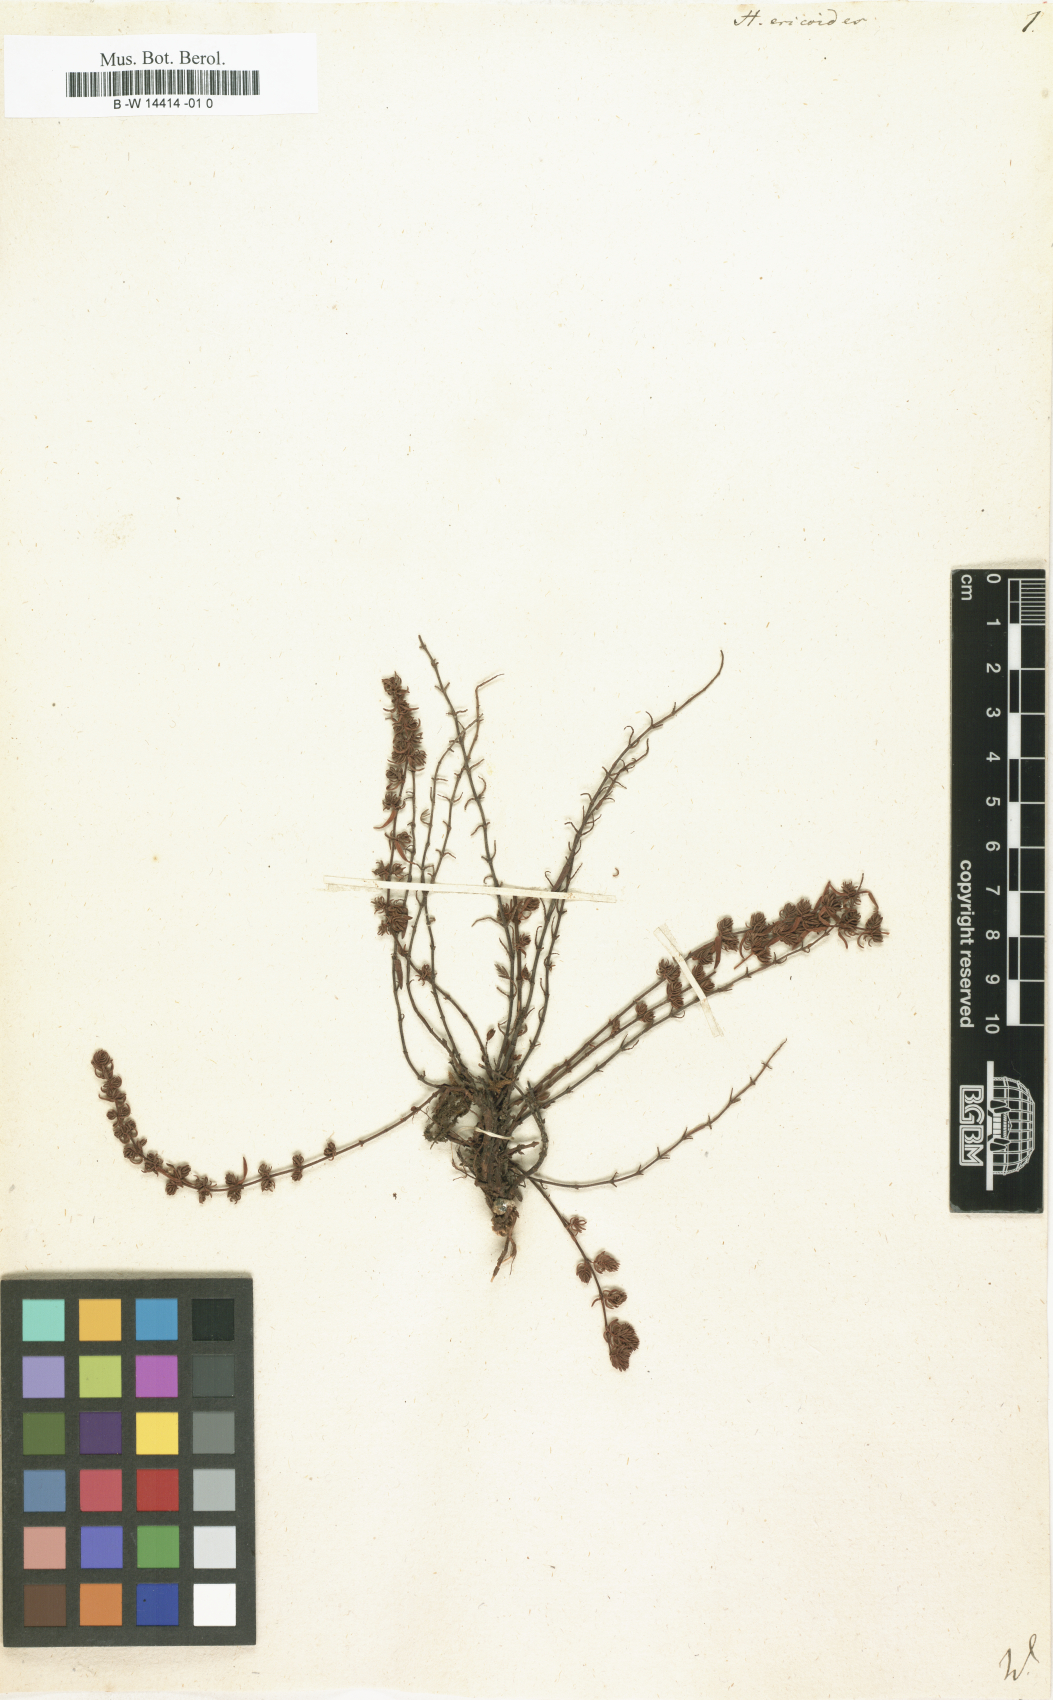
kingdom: Plantae
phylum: Tracheophyta
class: Magnoliopsida
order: Malpighiales
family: Hypericaceae
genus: Hypericum
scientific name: Hypericum ericoides
